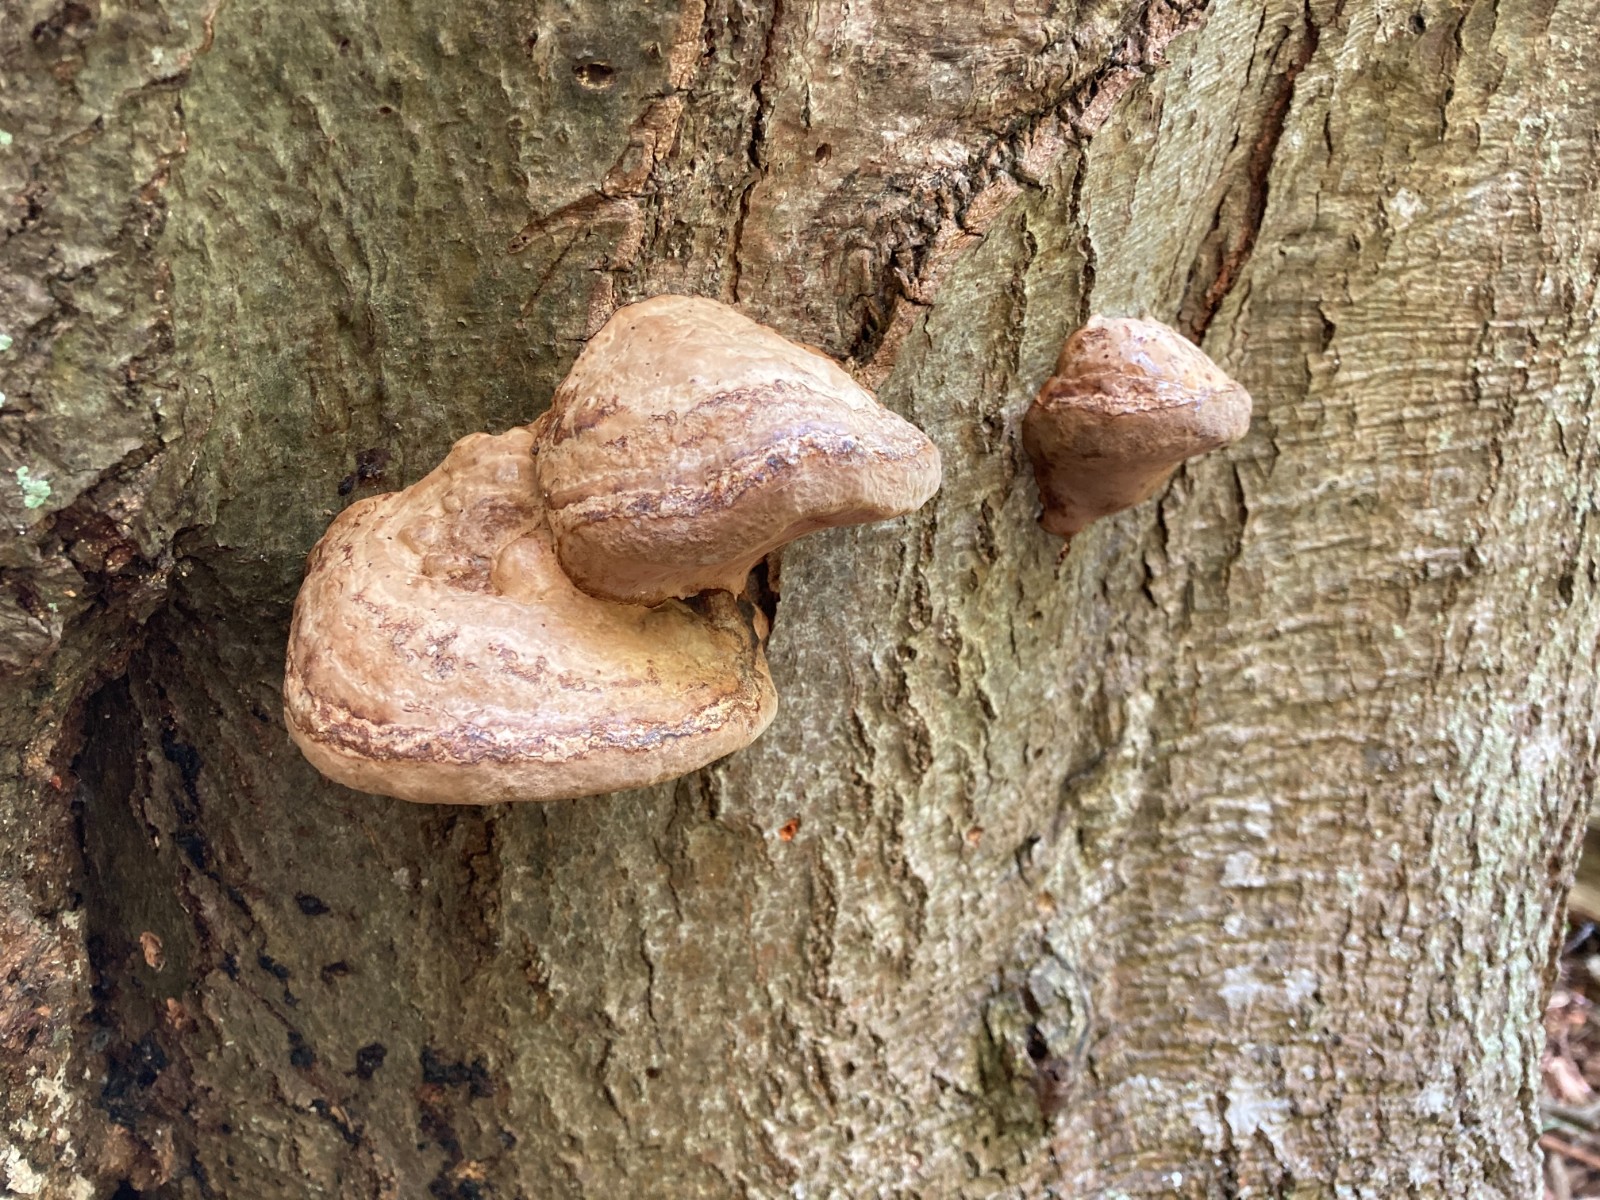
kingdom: Fungi
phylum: Basidiomycota
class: Agaricomycetes
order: Polyporales
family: Polyporaceae
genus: Fomes
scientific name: Fomes fomentarius
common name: tøndersvamp
